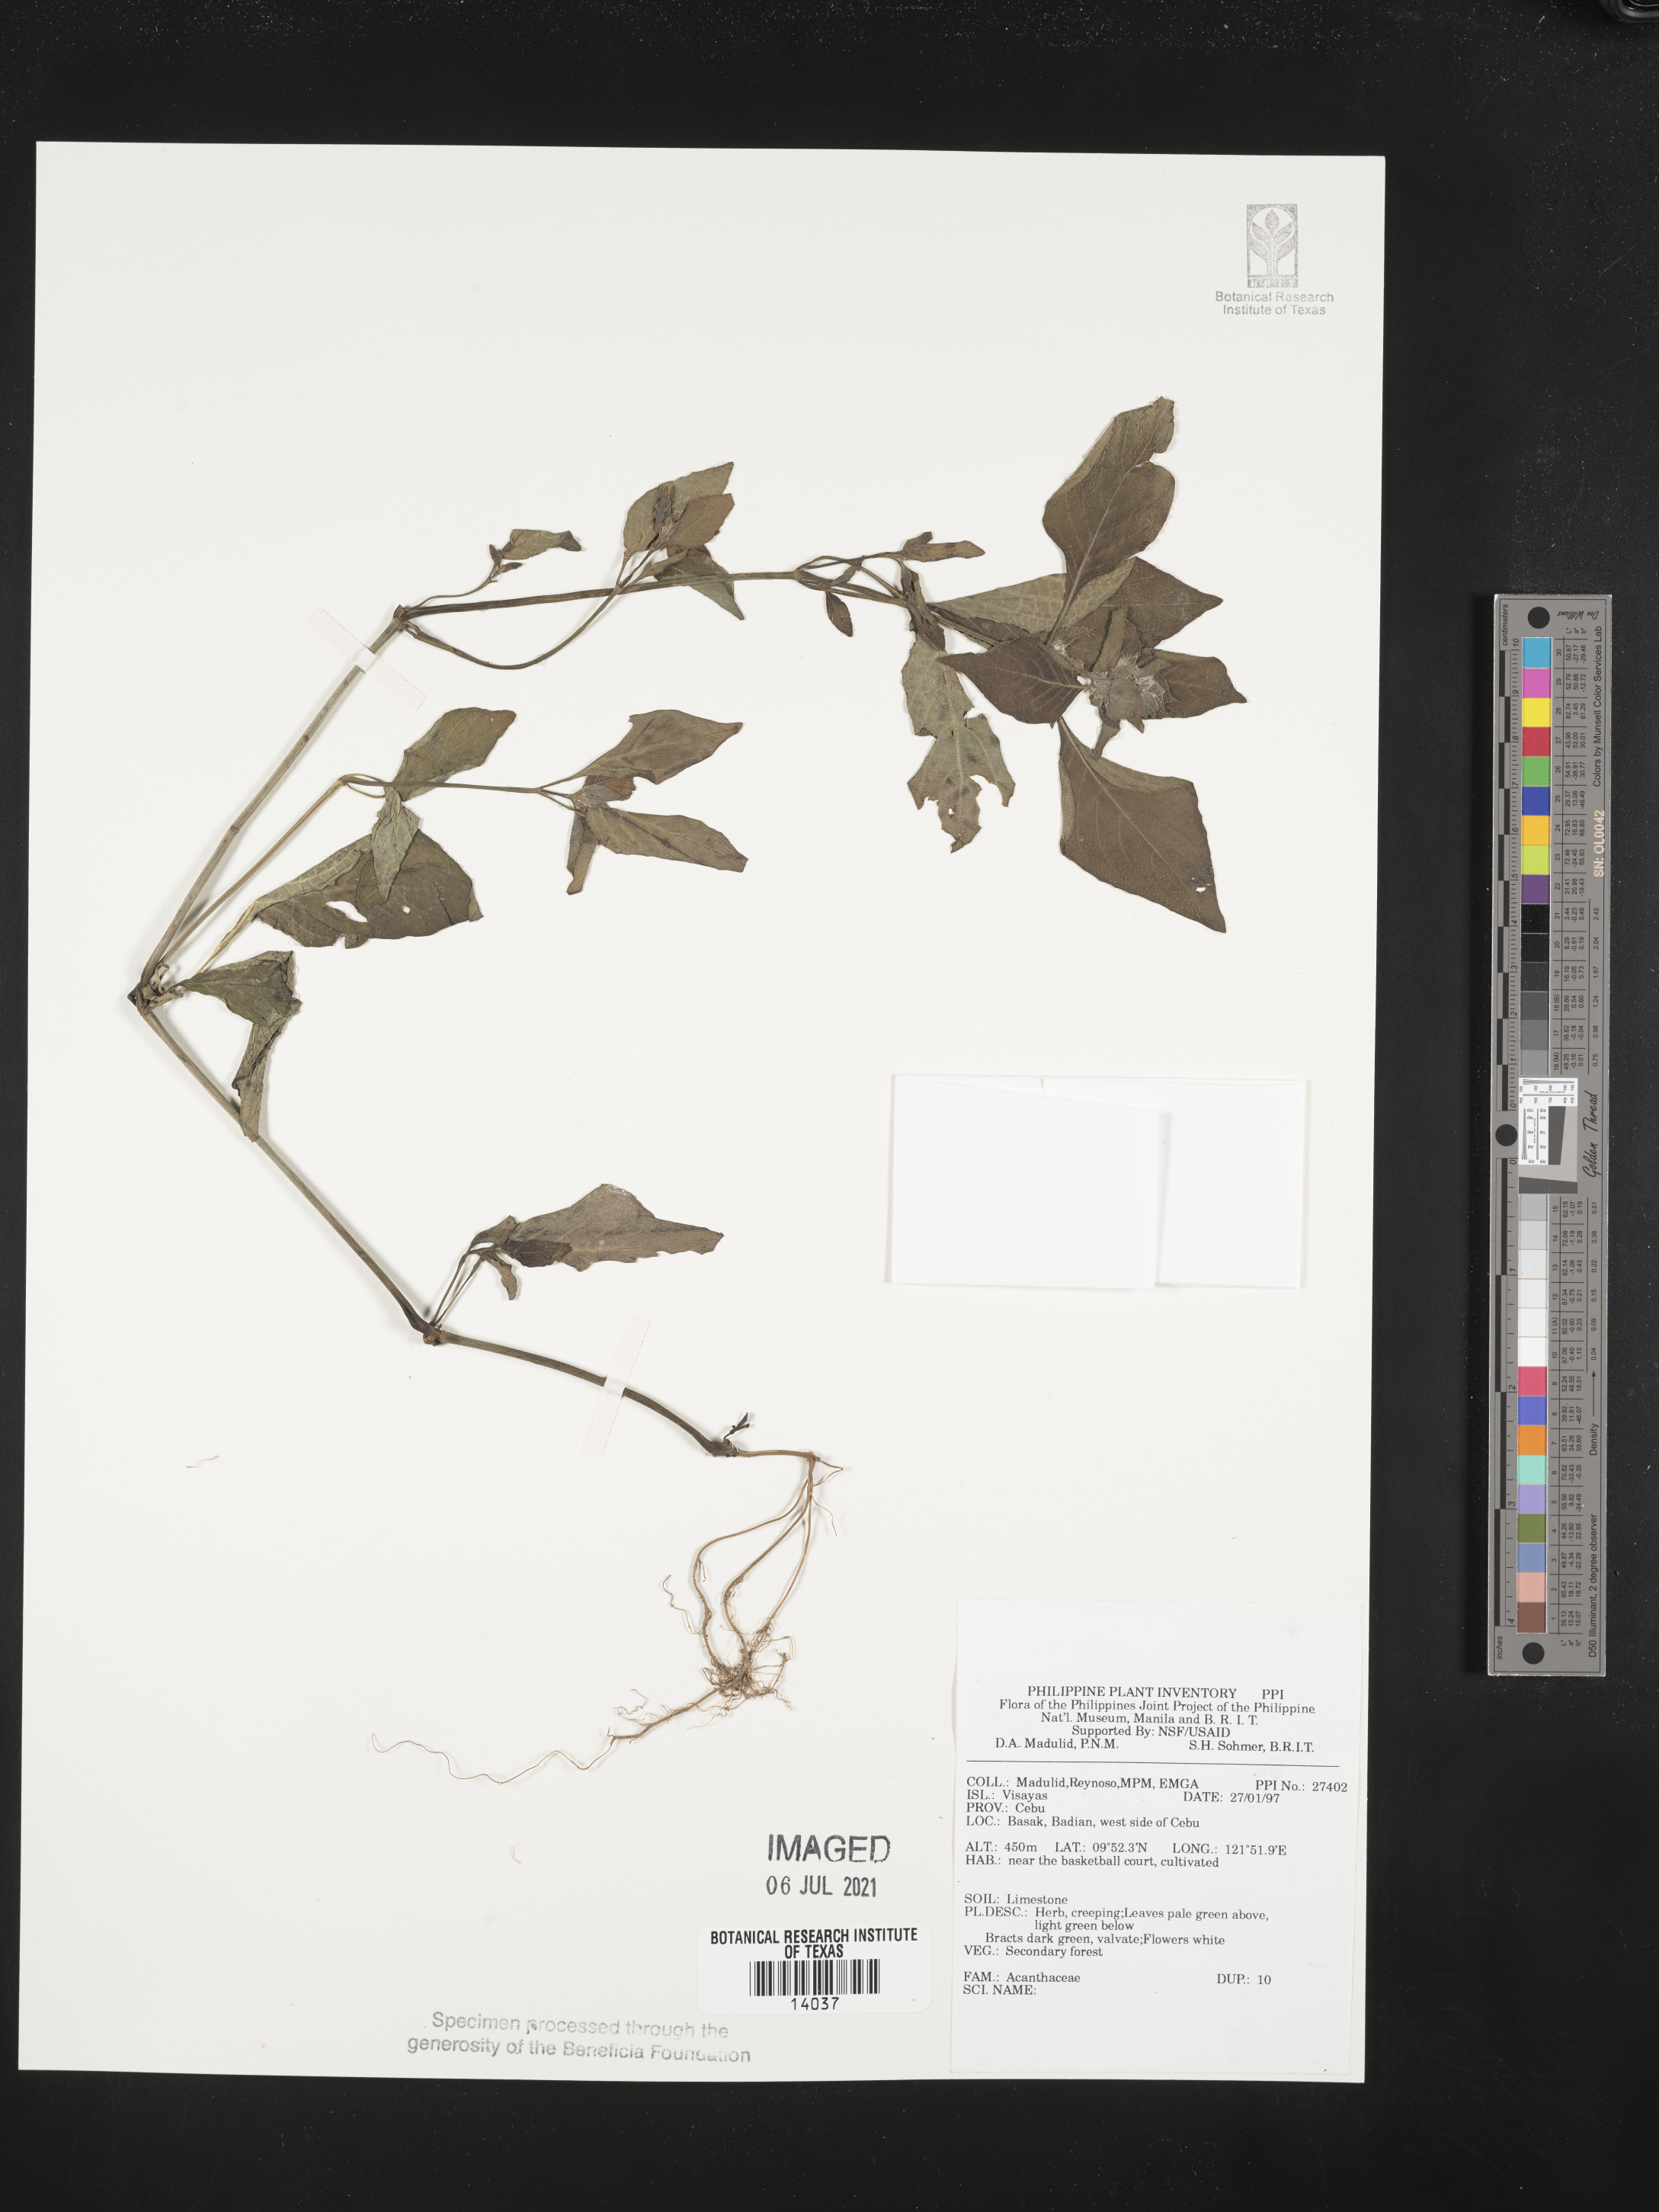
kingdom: Plantae
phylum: Tracheophyta
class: Magnoliopsida
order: Lamiales
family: Acanthaceae
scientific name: Acanthaceae
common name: Acanthaceae
